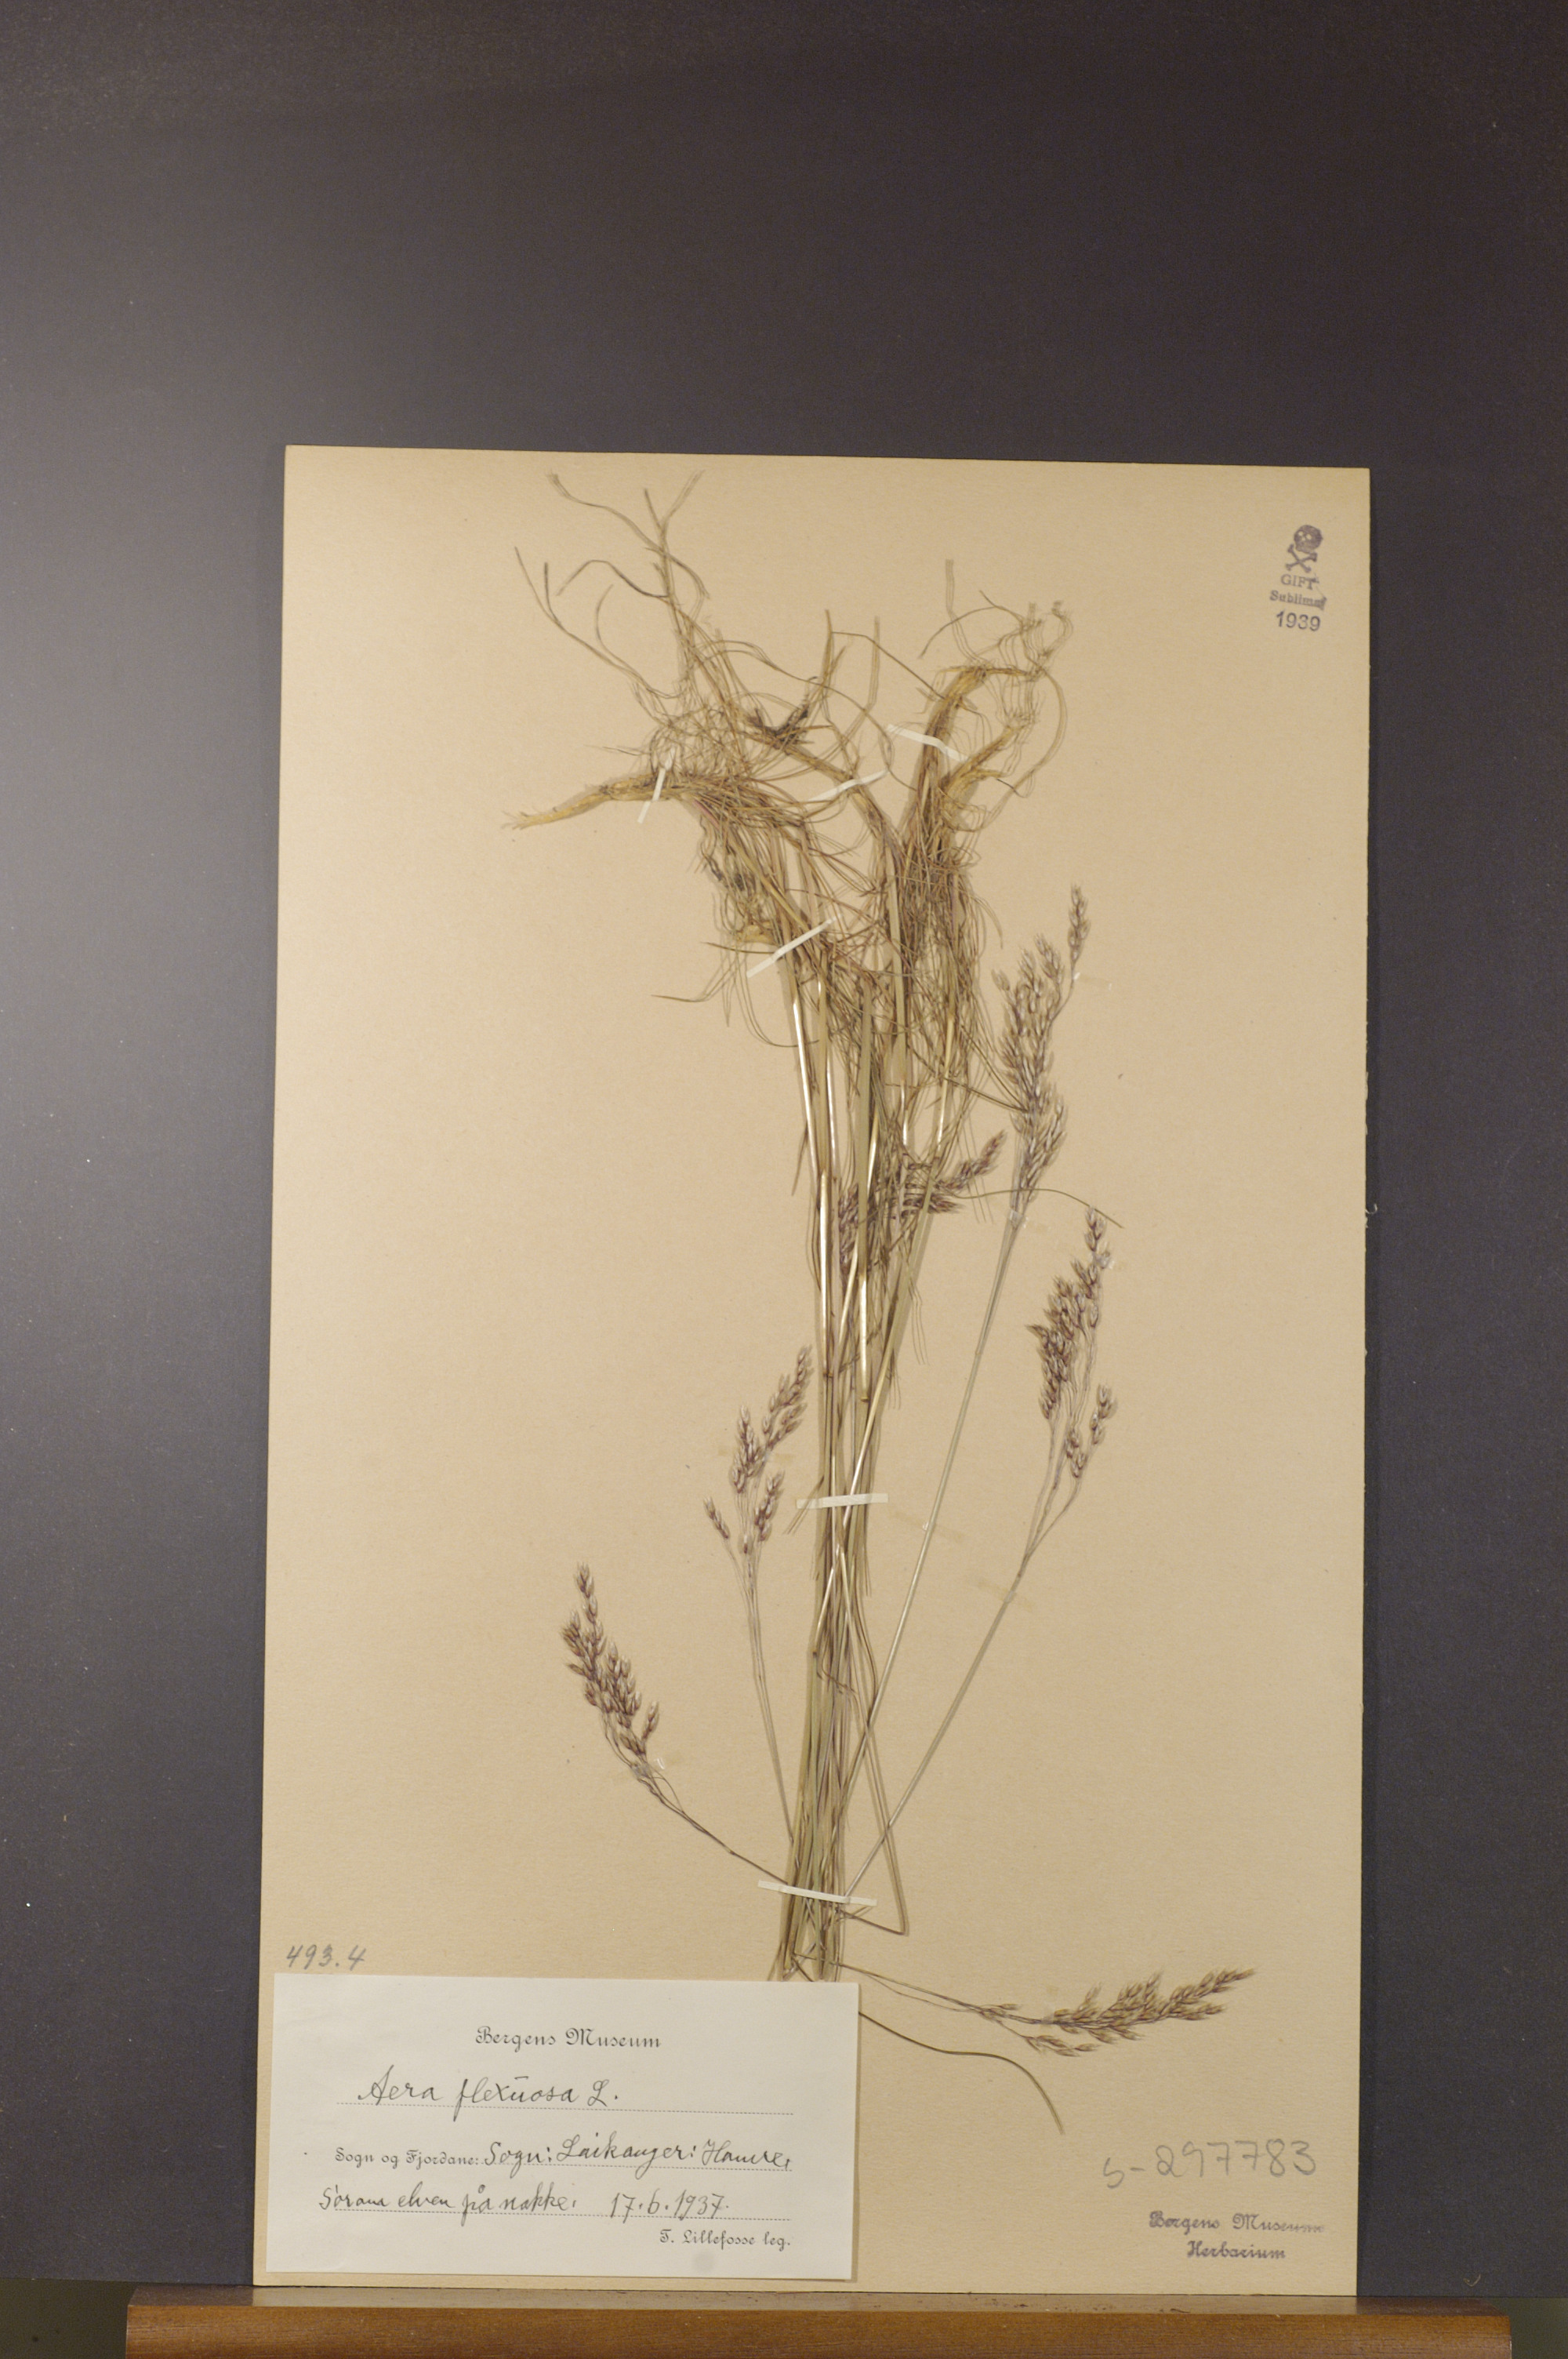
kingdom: Plantae
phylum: Tracheophyta
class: Liliopsida
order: Poales
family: Poaceae
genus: Avenella
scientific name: Avenella flexuosa
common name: Wavy hairgrass
